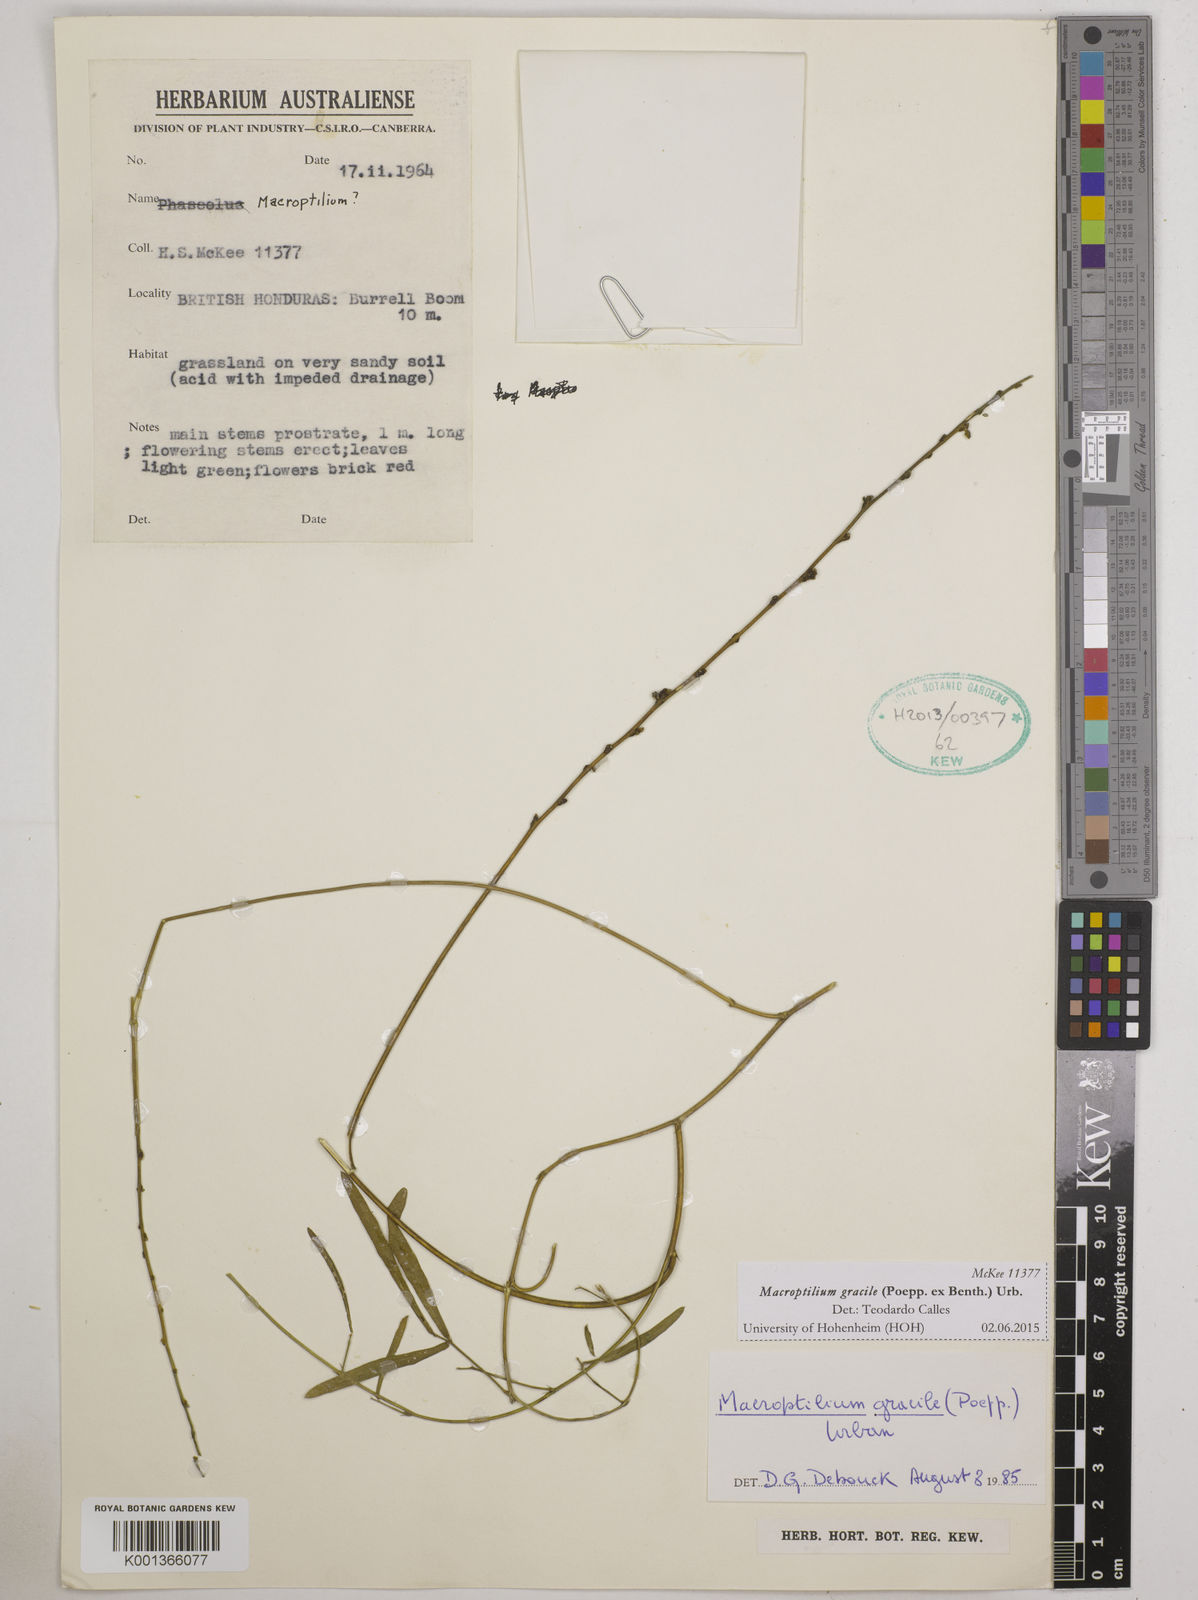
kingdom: Plantae
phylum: Tracheophyta
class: Magnoliopsida
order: Fabales
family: Fabaceae
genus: Macroptilium
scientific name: Macroptilium gracile
